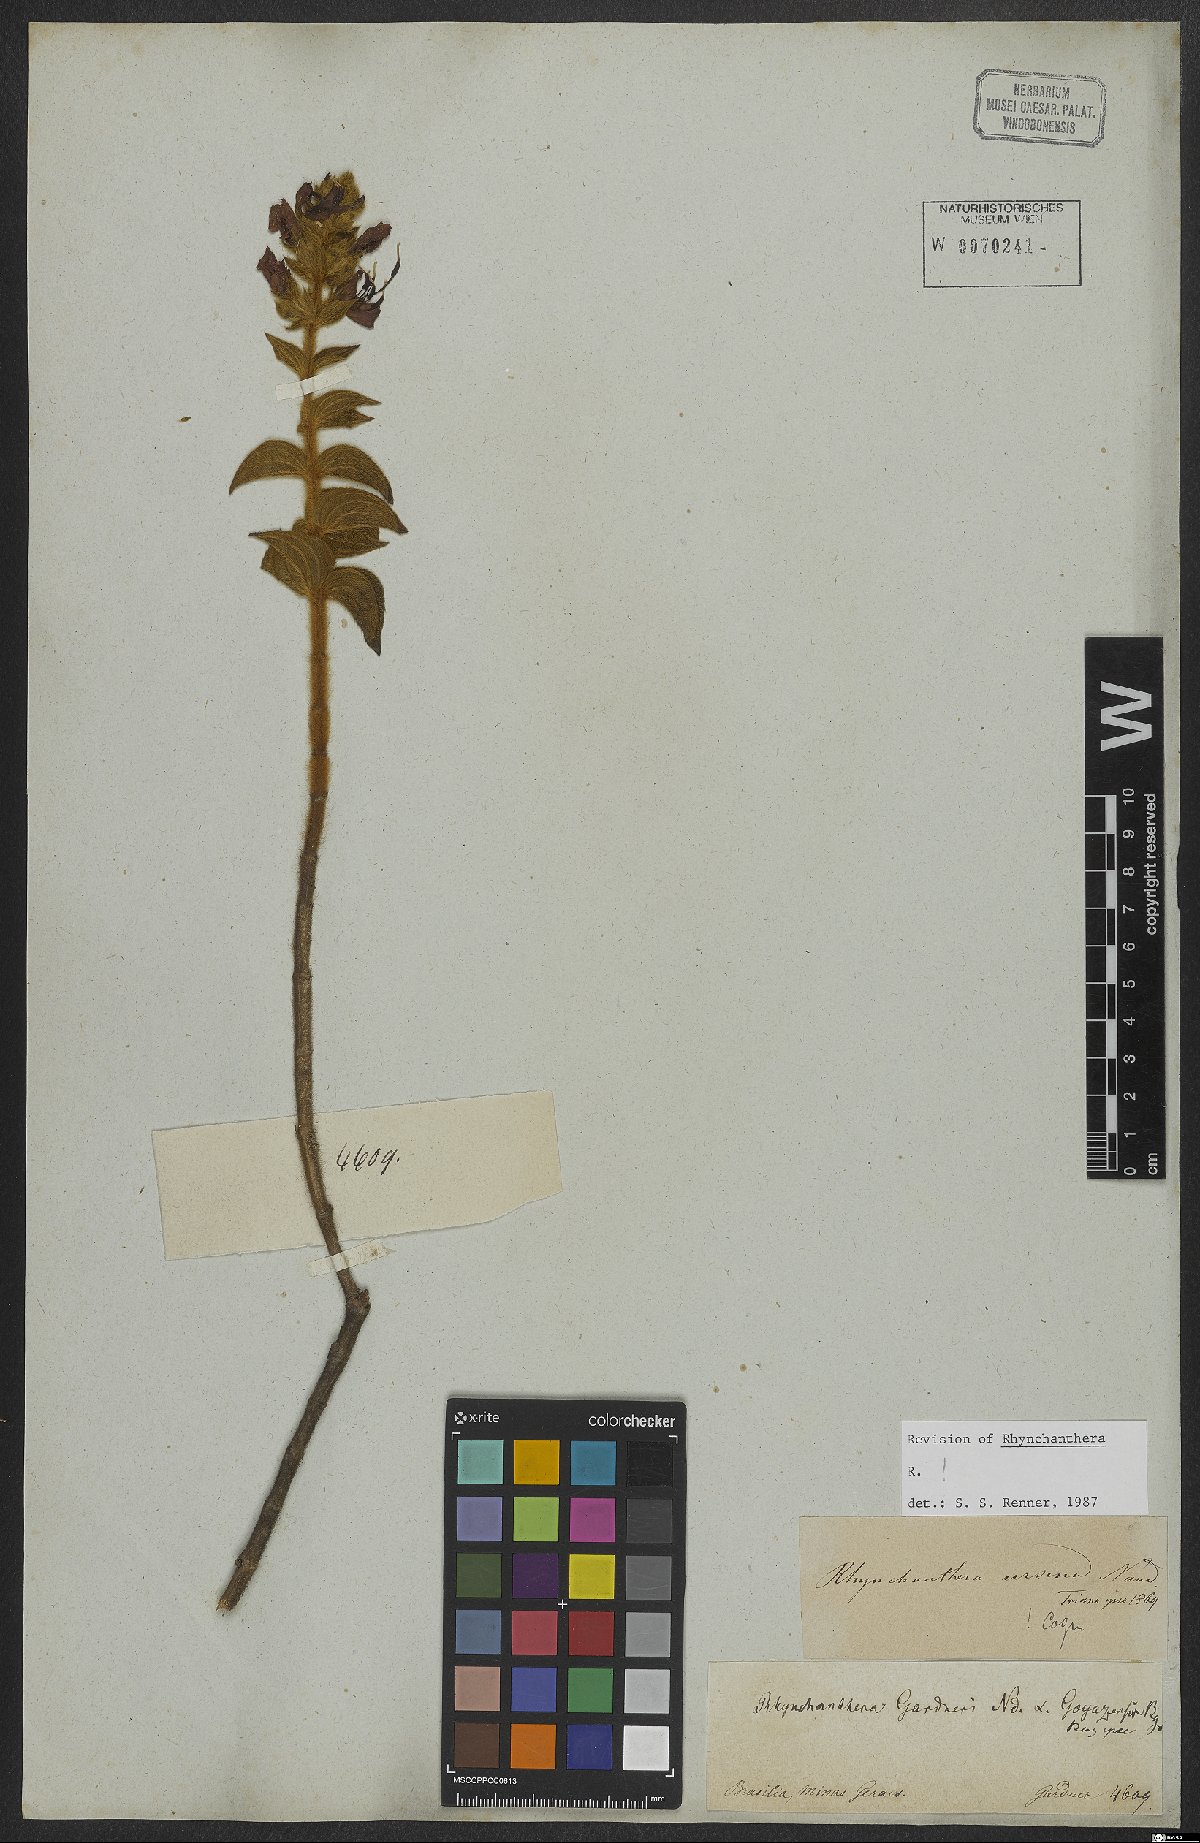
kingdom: Plantae
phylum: Tracheophyta
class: Magnoliopsida
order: Myrtales
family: Melastomataceae
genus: Rhynchanthera
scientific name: Rhynchanthera ursina
